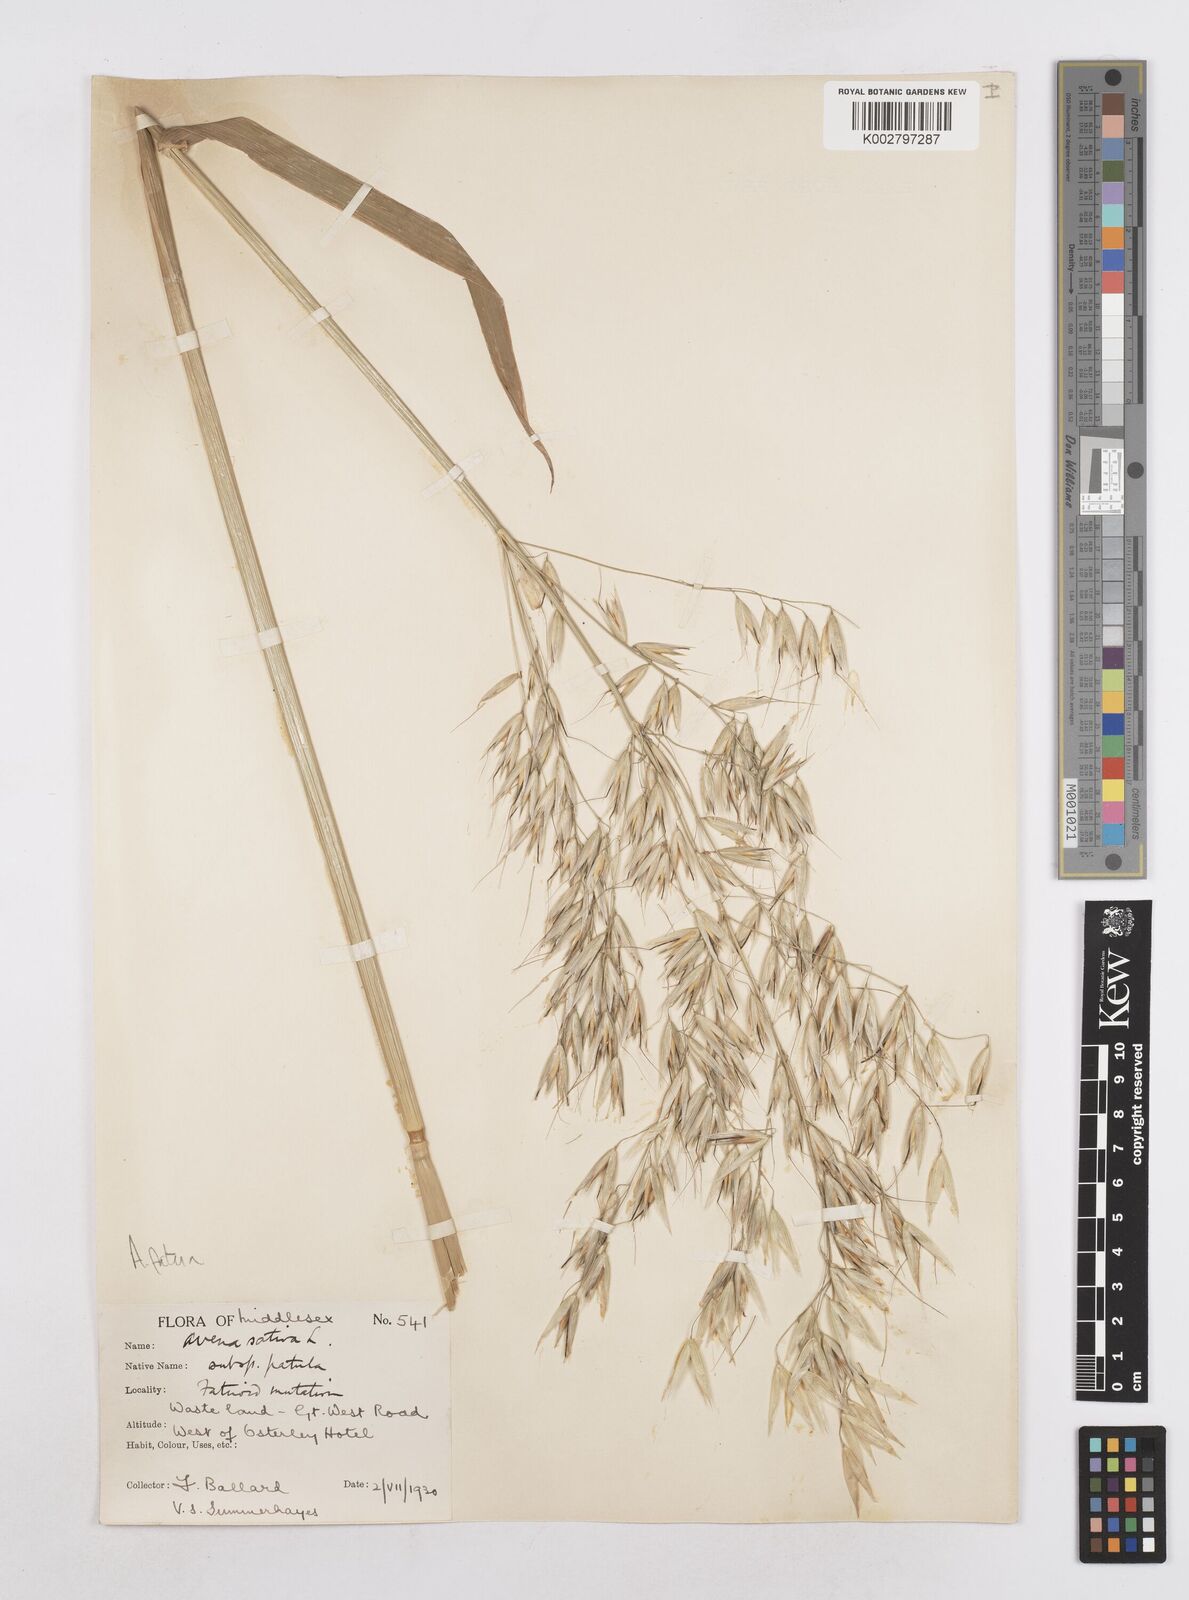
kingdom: Plantae
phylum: Tracheophyta
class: Liliopsida
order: Poales
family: Poaceae
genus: Avena
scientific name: Avena fatua
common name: Wild oat
